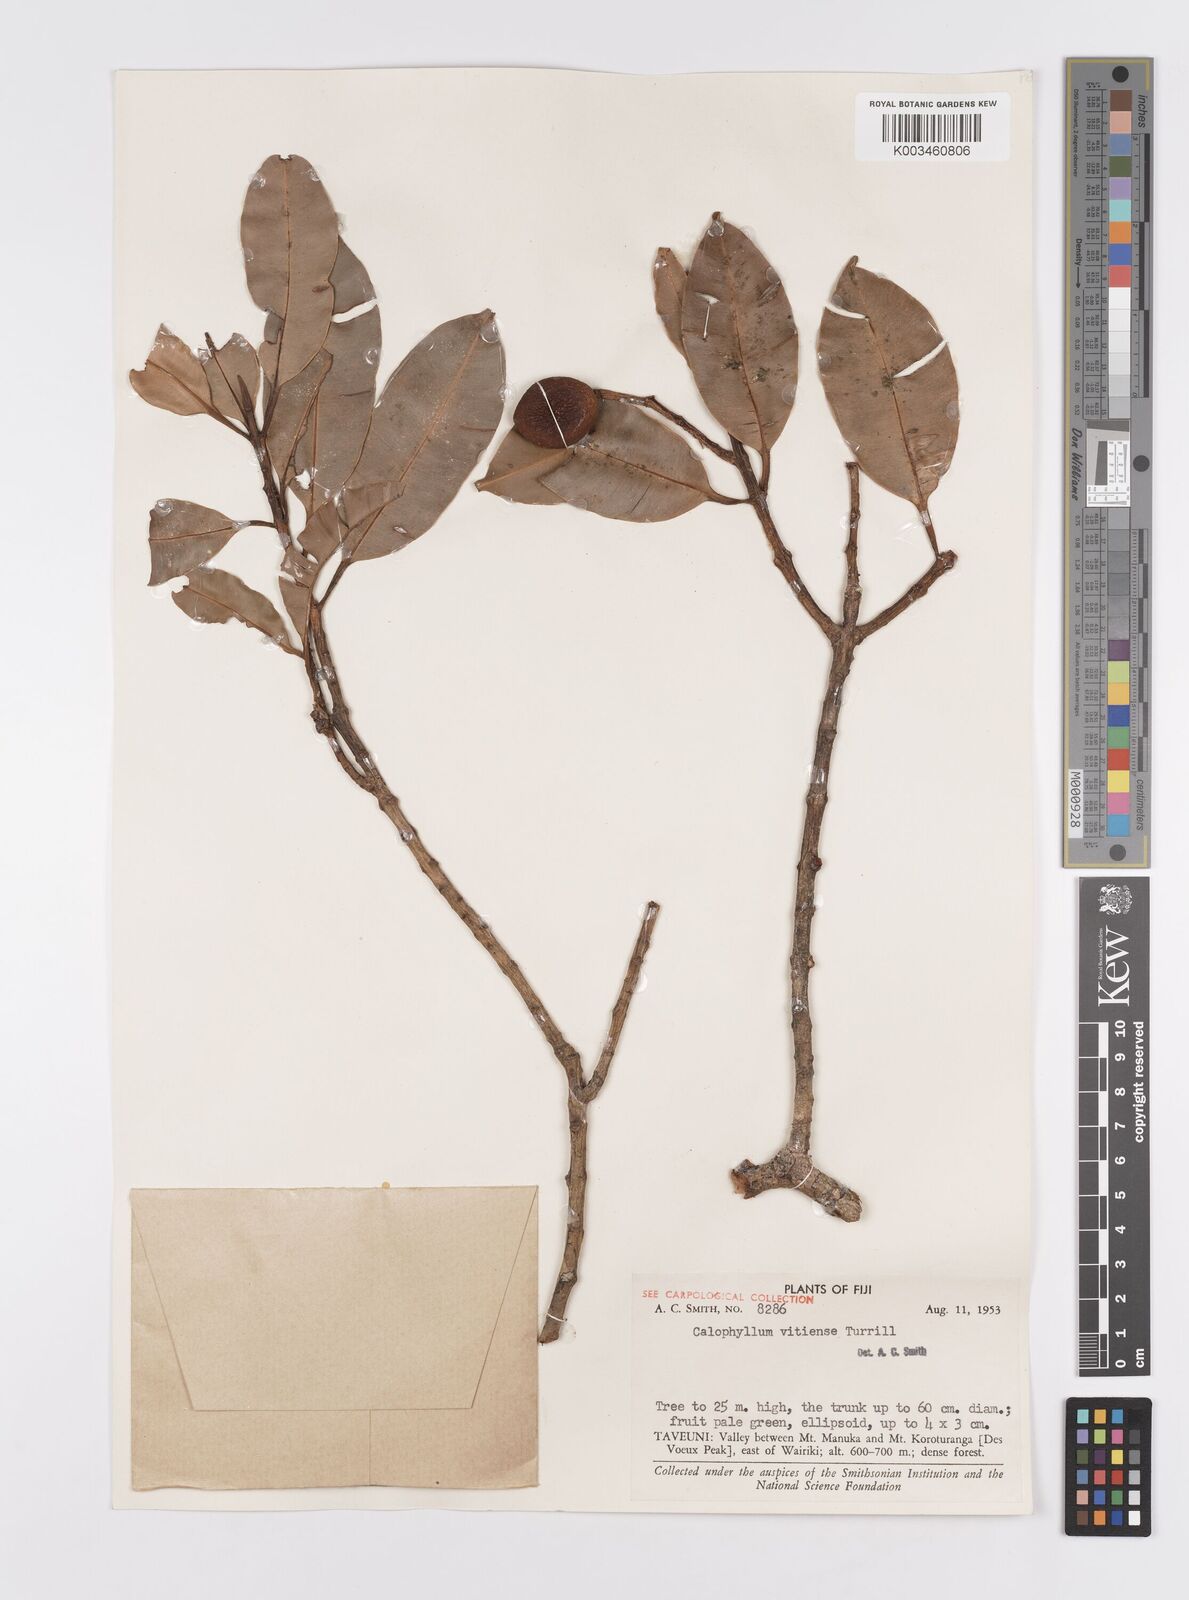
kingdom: Plantae
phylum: Tracheophyta
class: Magnoliopsida
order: Malpighiales
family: Calophyllaceae
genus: Calophyllum
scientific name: Calophyllum cerasiferum
